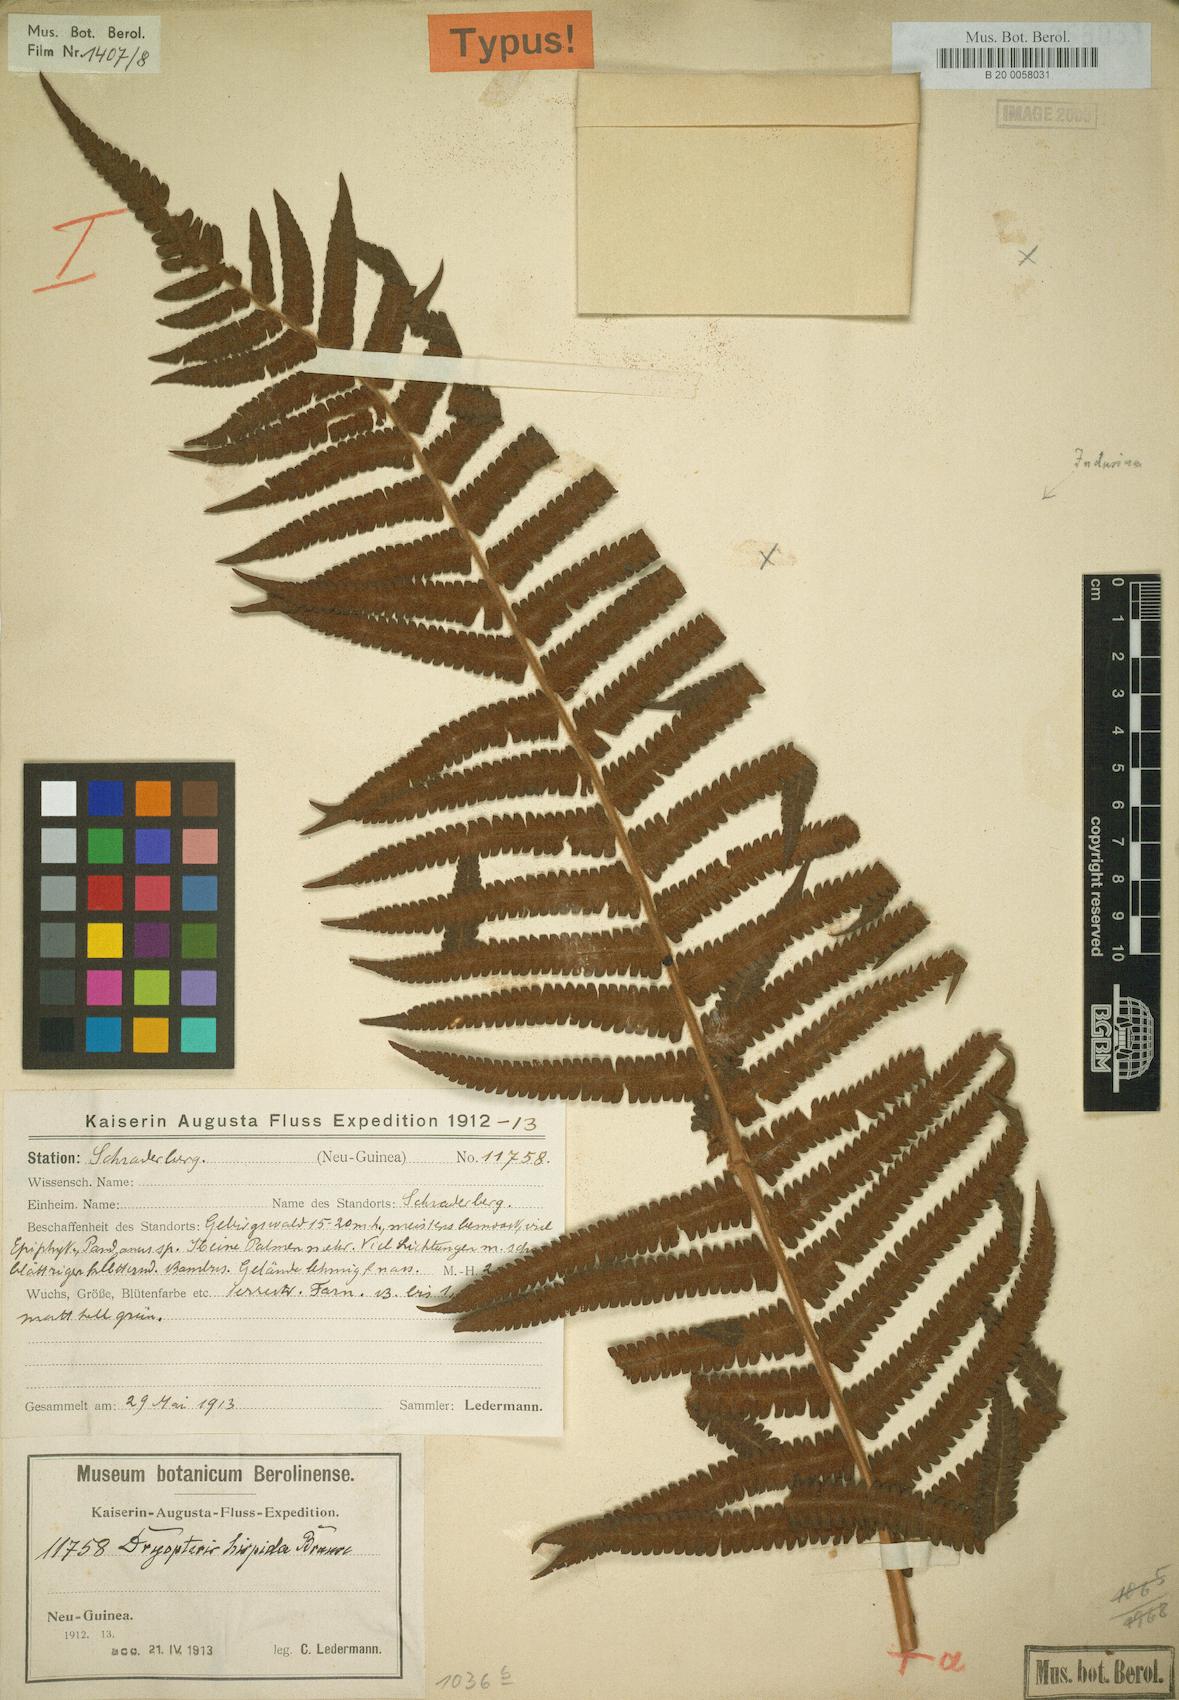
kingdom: Plantae
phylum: Tracheophyta
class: Polypodiopsida
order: Polypodiales
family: Thelypteridaceae
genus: Sphaerostephanos
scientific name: Sphaerostephanos hispiduliformis
